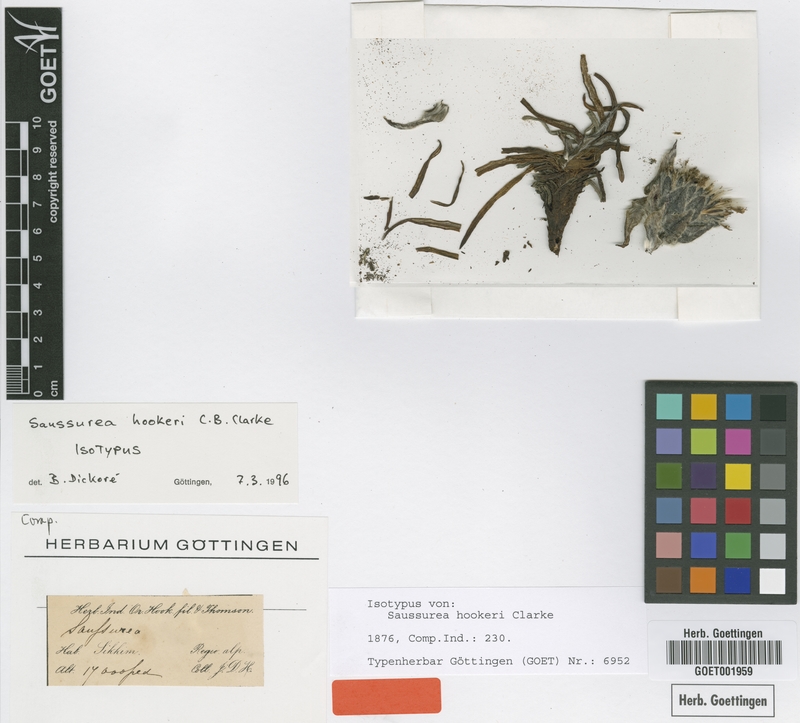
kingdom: Plantae
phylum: Tracheophyta
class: Magnoliopsida
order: Asterales
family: Asteraceae
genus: Saussurea
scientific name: Saussurea hookeri
